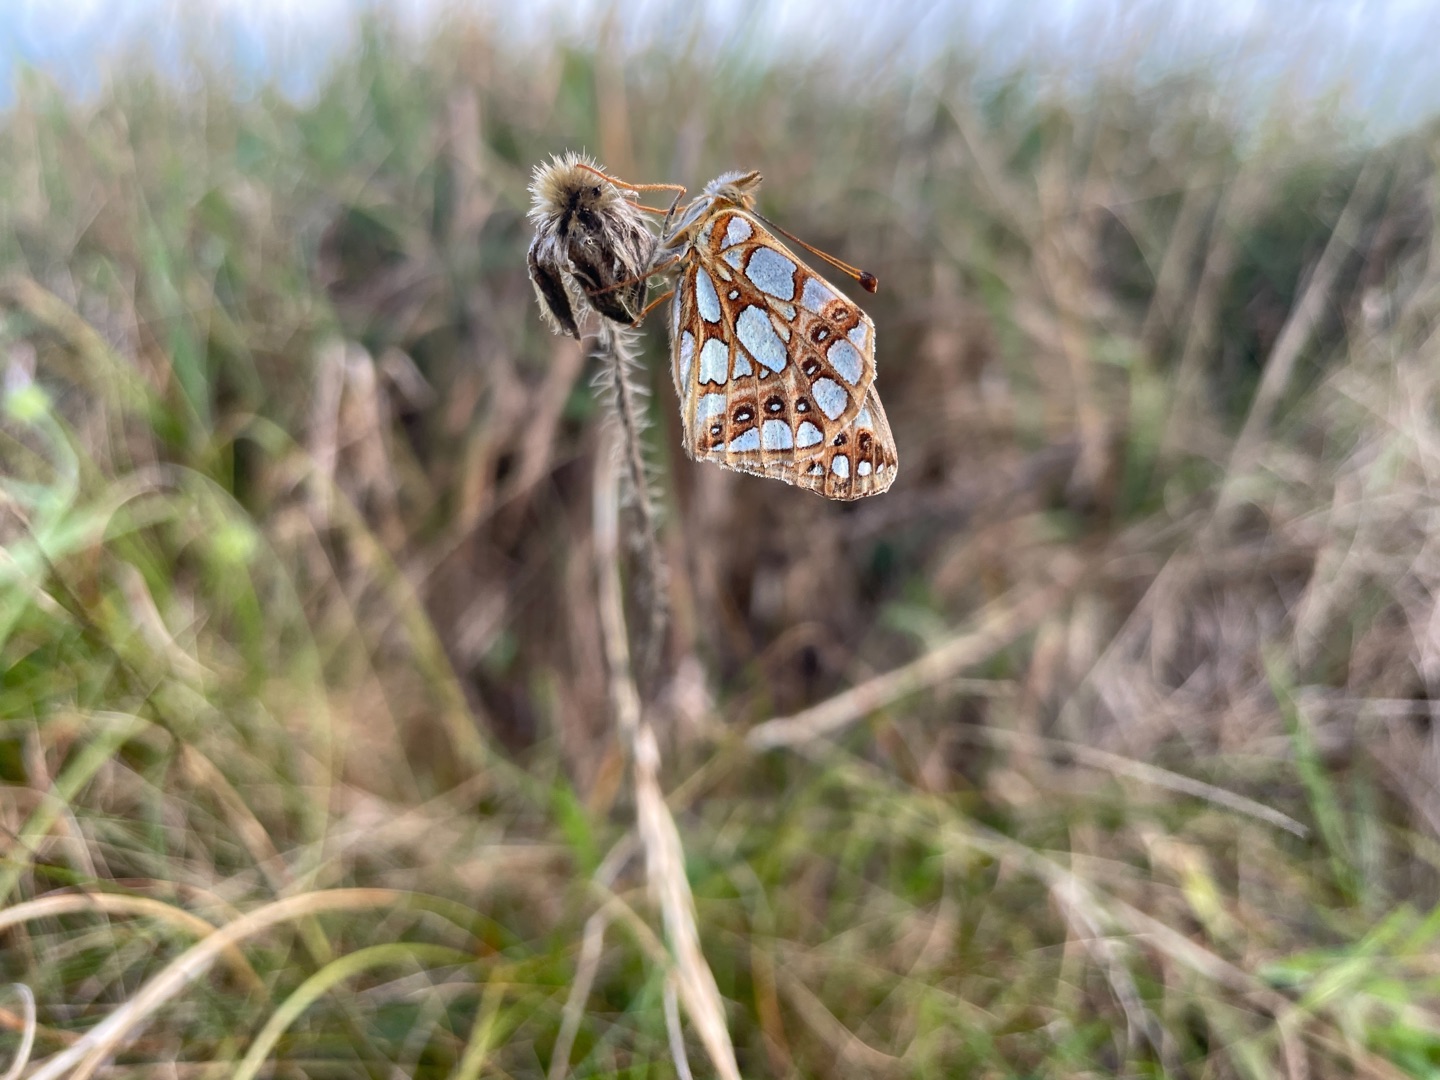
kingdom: Animalia
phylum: Arthropoda
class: Insecta
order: Lepidoptera
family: Nymphalidae
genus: Issoria
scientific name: Issoria lathonia
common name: Storplettet perlemorsommerfugl
